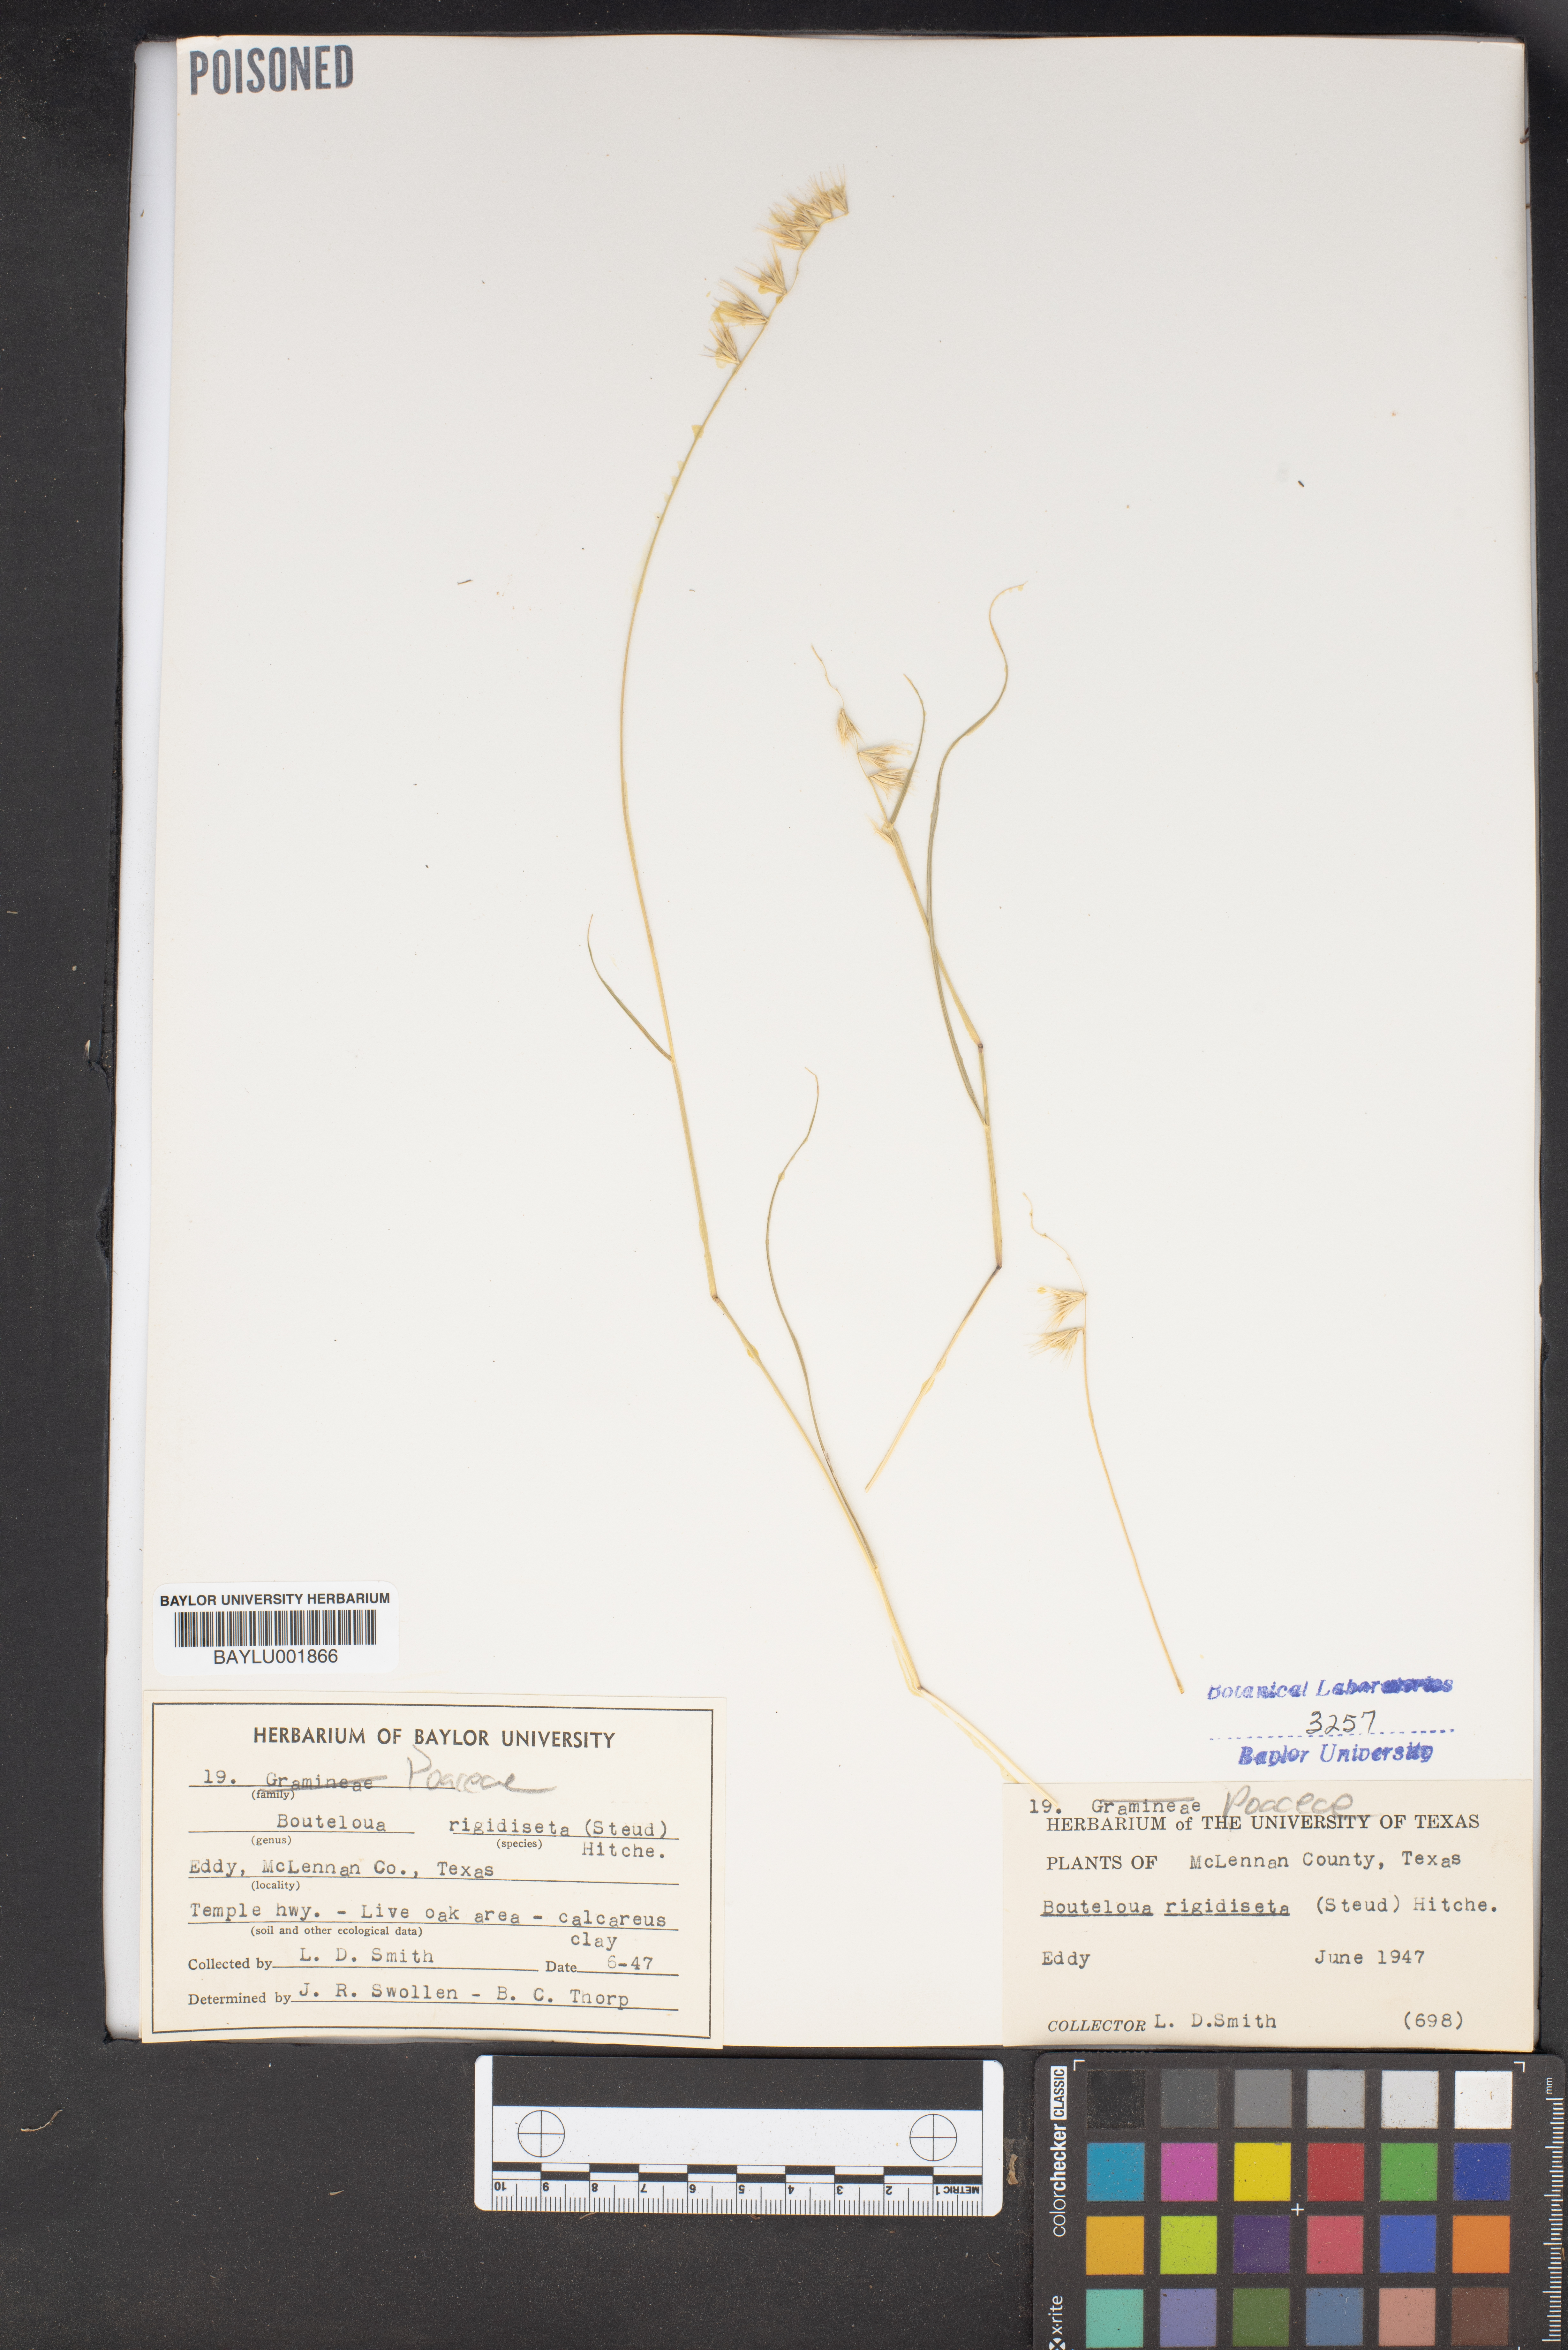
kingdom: Plantae
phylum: Tracheophyta
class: Liliopsida
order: Poales
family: Poaceae
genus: Bouteloua
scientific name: Bouteloua rigidiseta
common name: Texas grama
